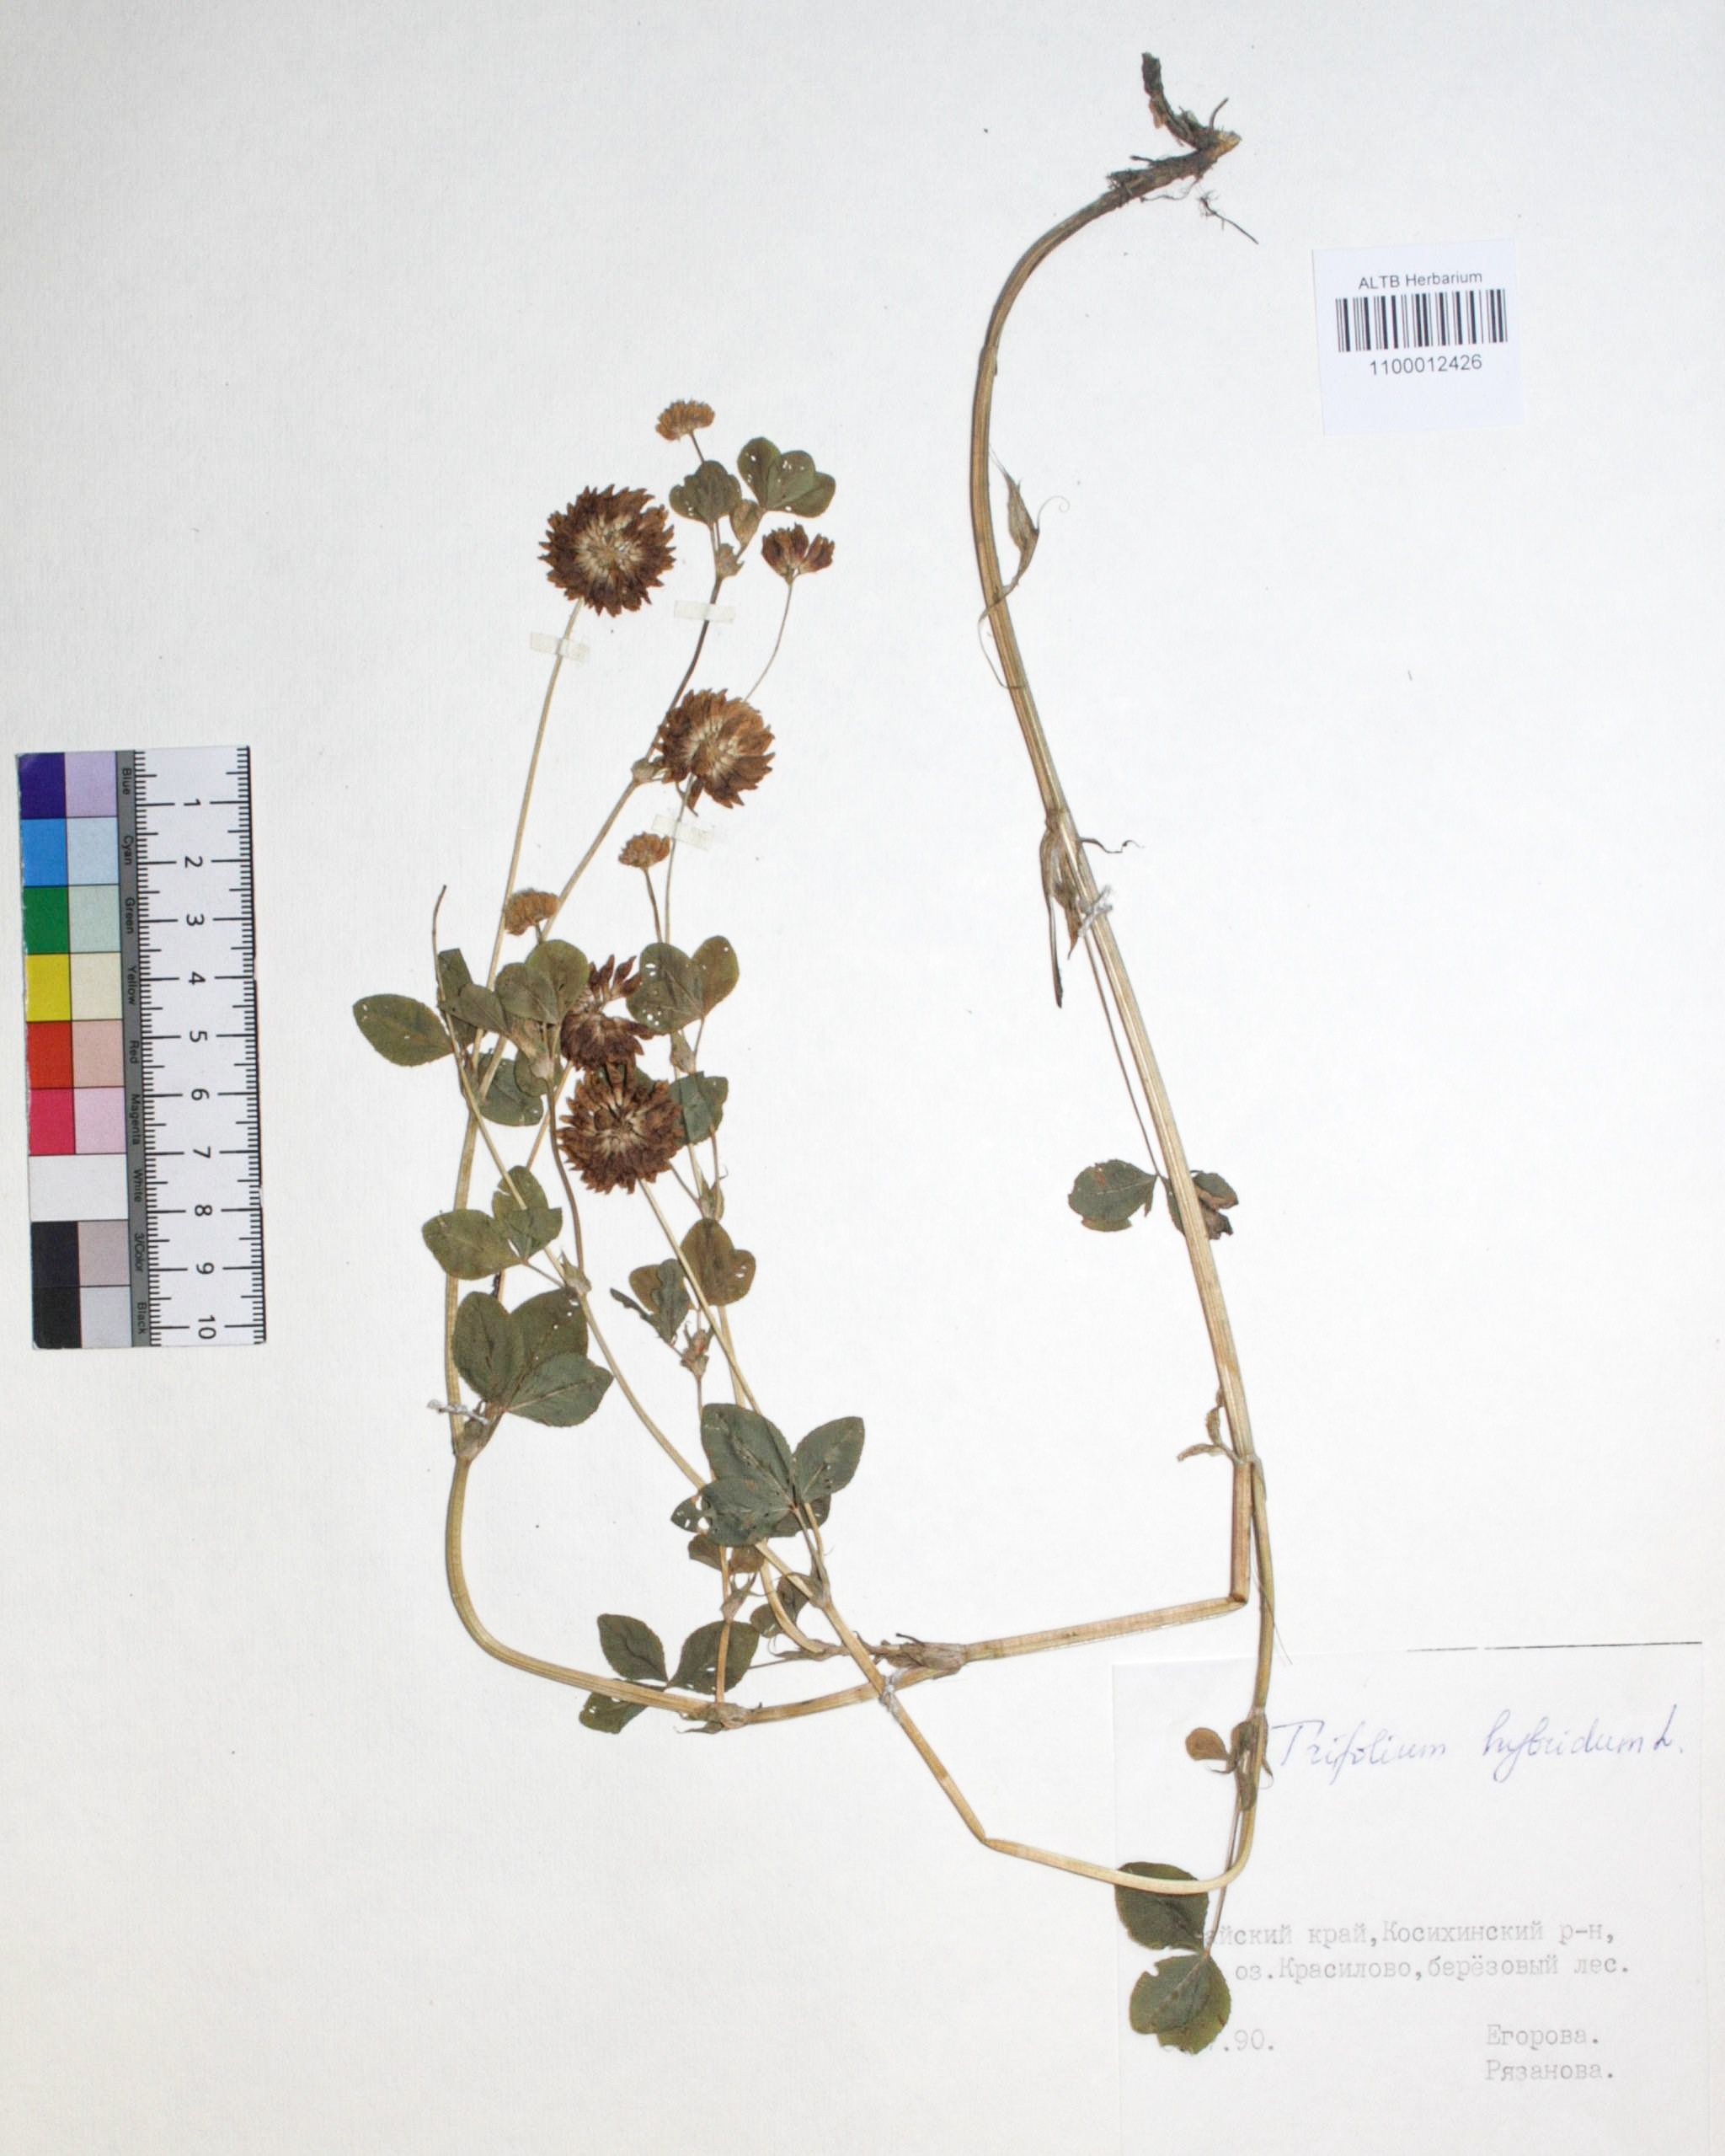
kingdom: Plantae
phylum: Tracheophyta
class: Magnoliopsida
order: Fabales
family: Fabaceae
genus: Trifolium
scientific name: Trifolium hybridum
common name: Alsike clover
